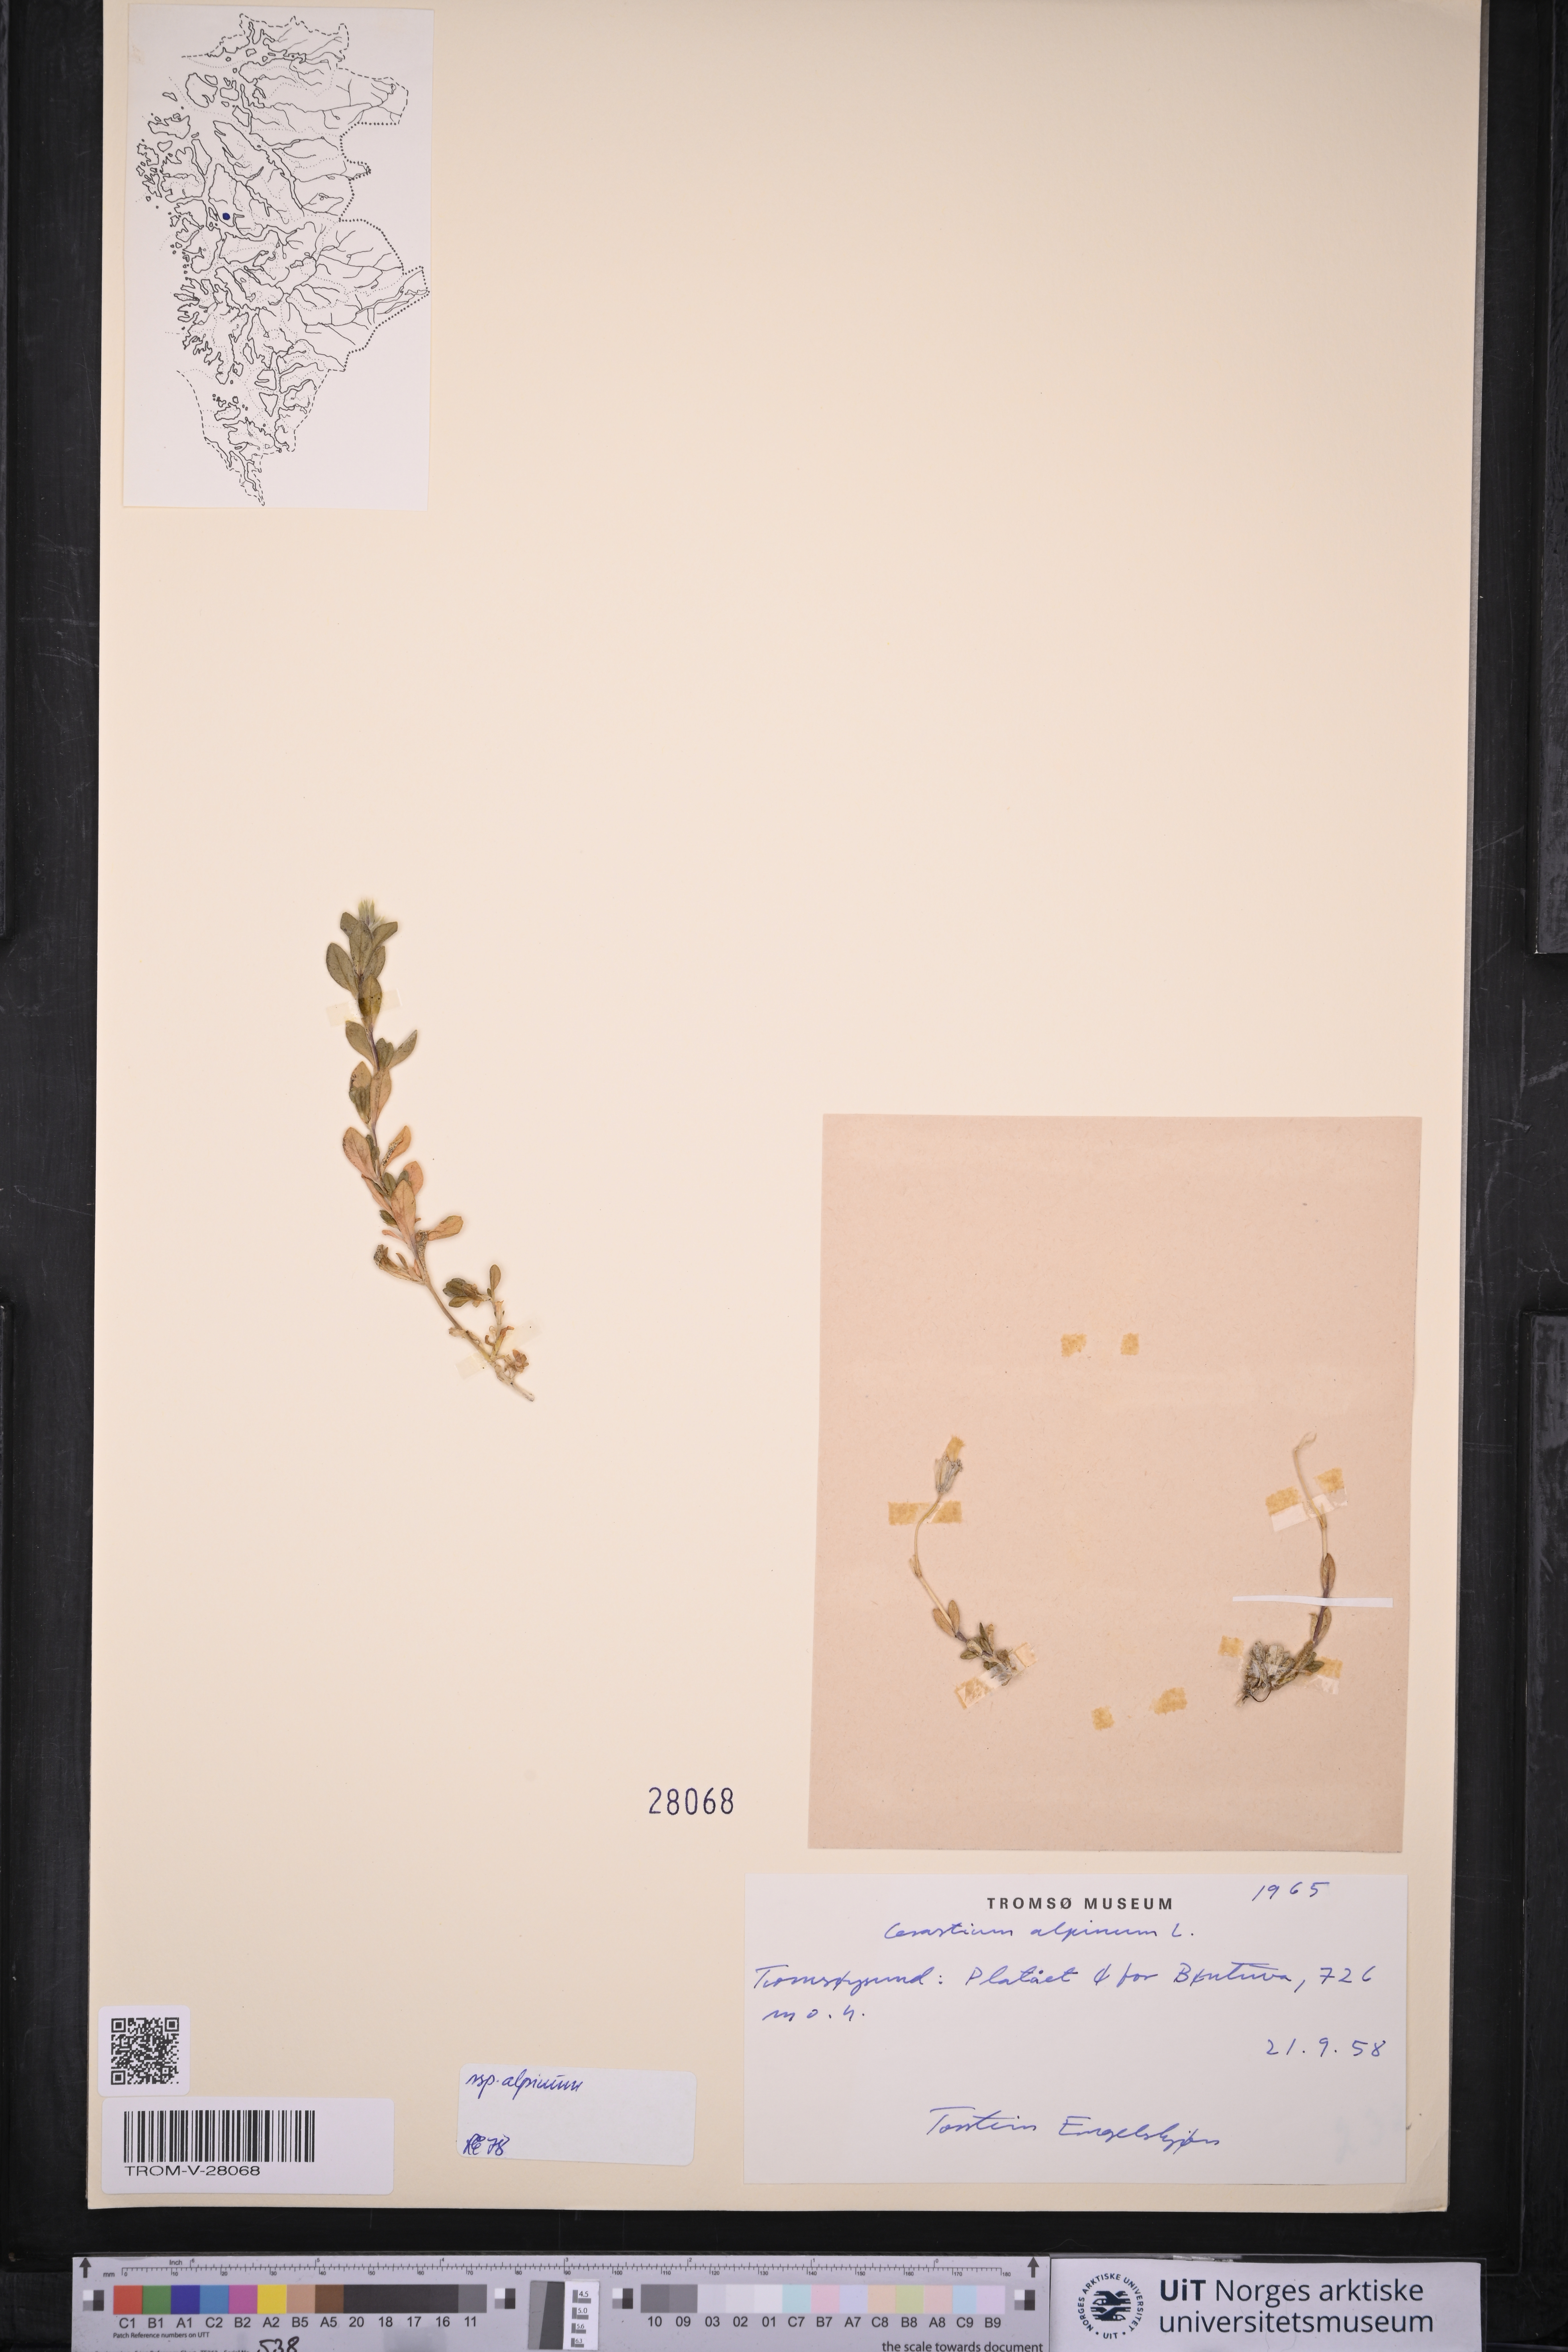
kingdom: Plantae
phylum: Tracheophyta
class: Magnoliopsida
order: Caryophyllales
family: Caryophyllaceae
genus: Cerastium
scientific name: Cerastium alpinum
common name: Alpine mouse-ear
